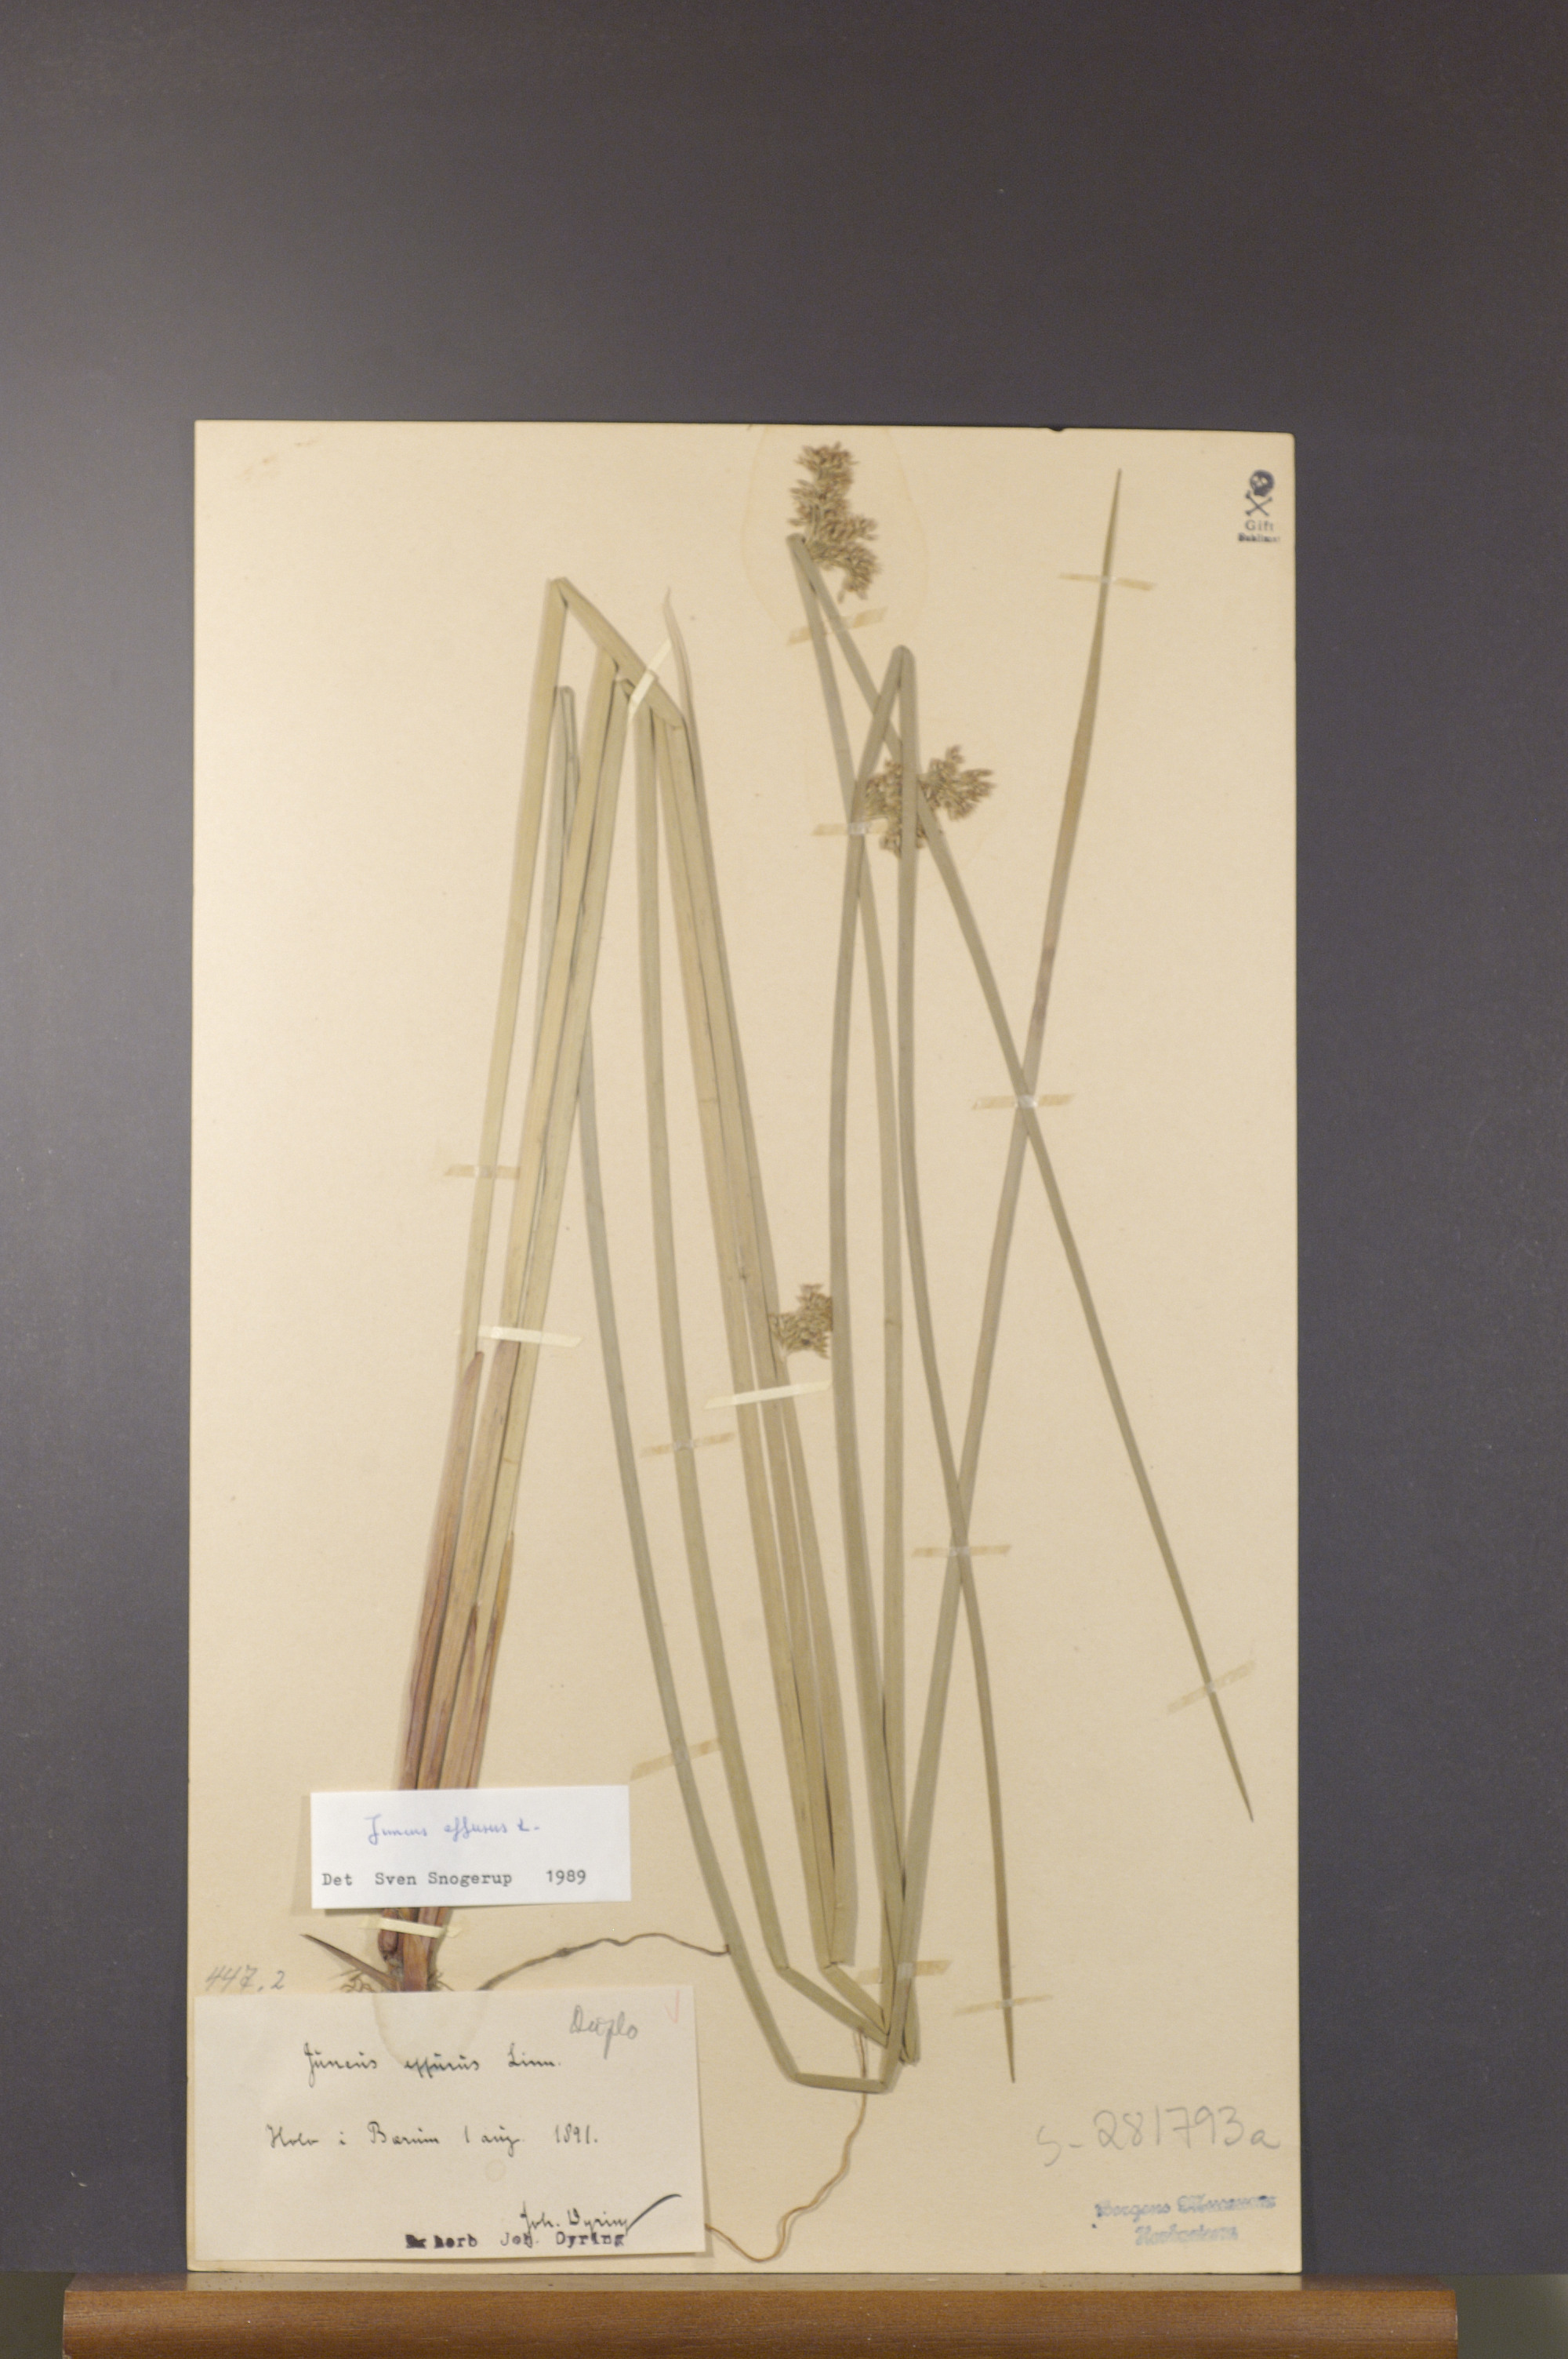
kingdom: Plantae
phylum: Tracheophyta
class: Liliopsida
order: Poales
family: Juncaceae
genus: Juncus
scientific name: Juncus effusus
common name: Soft rush
